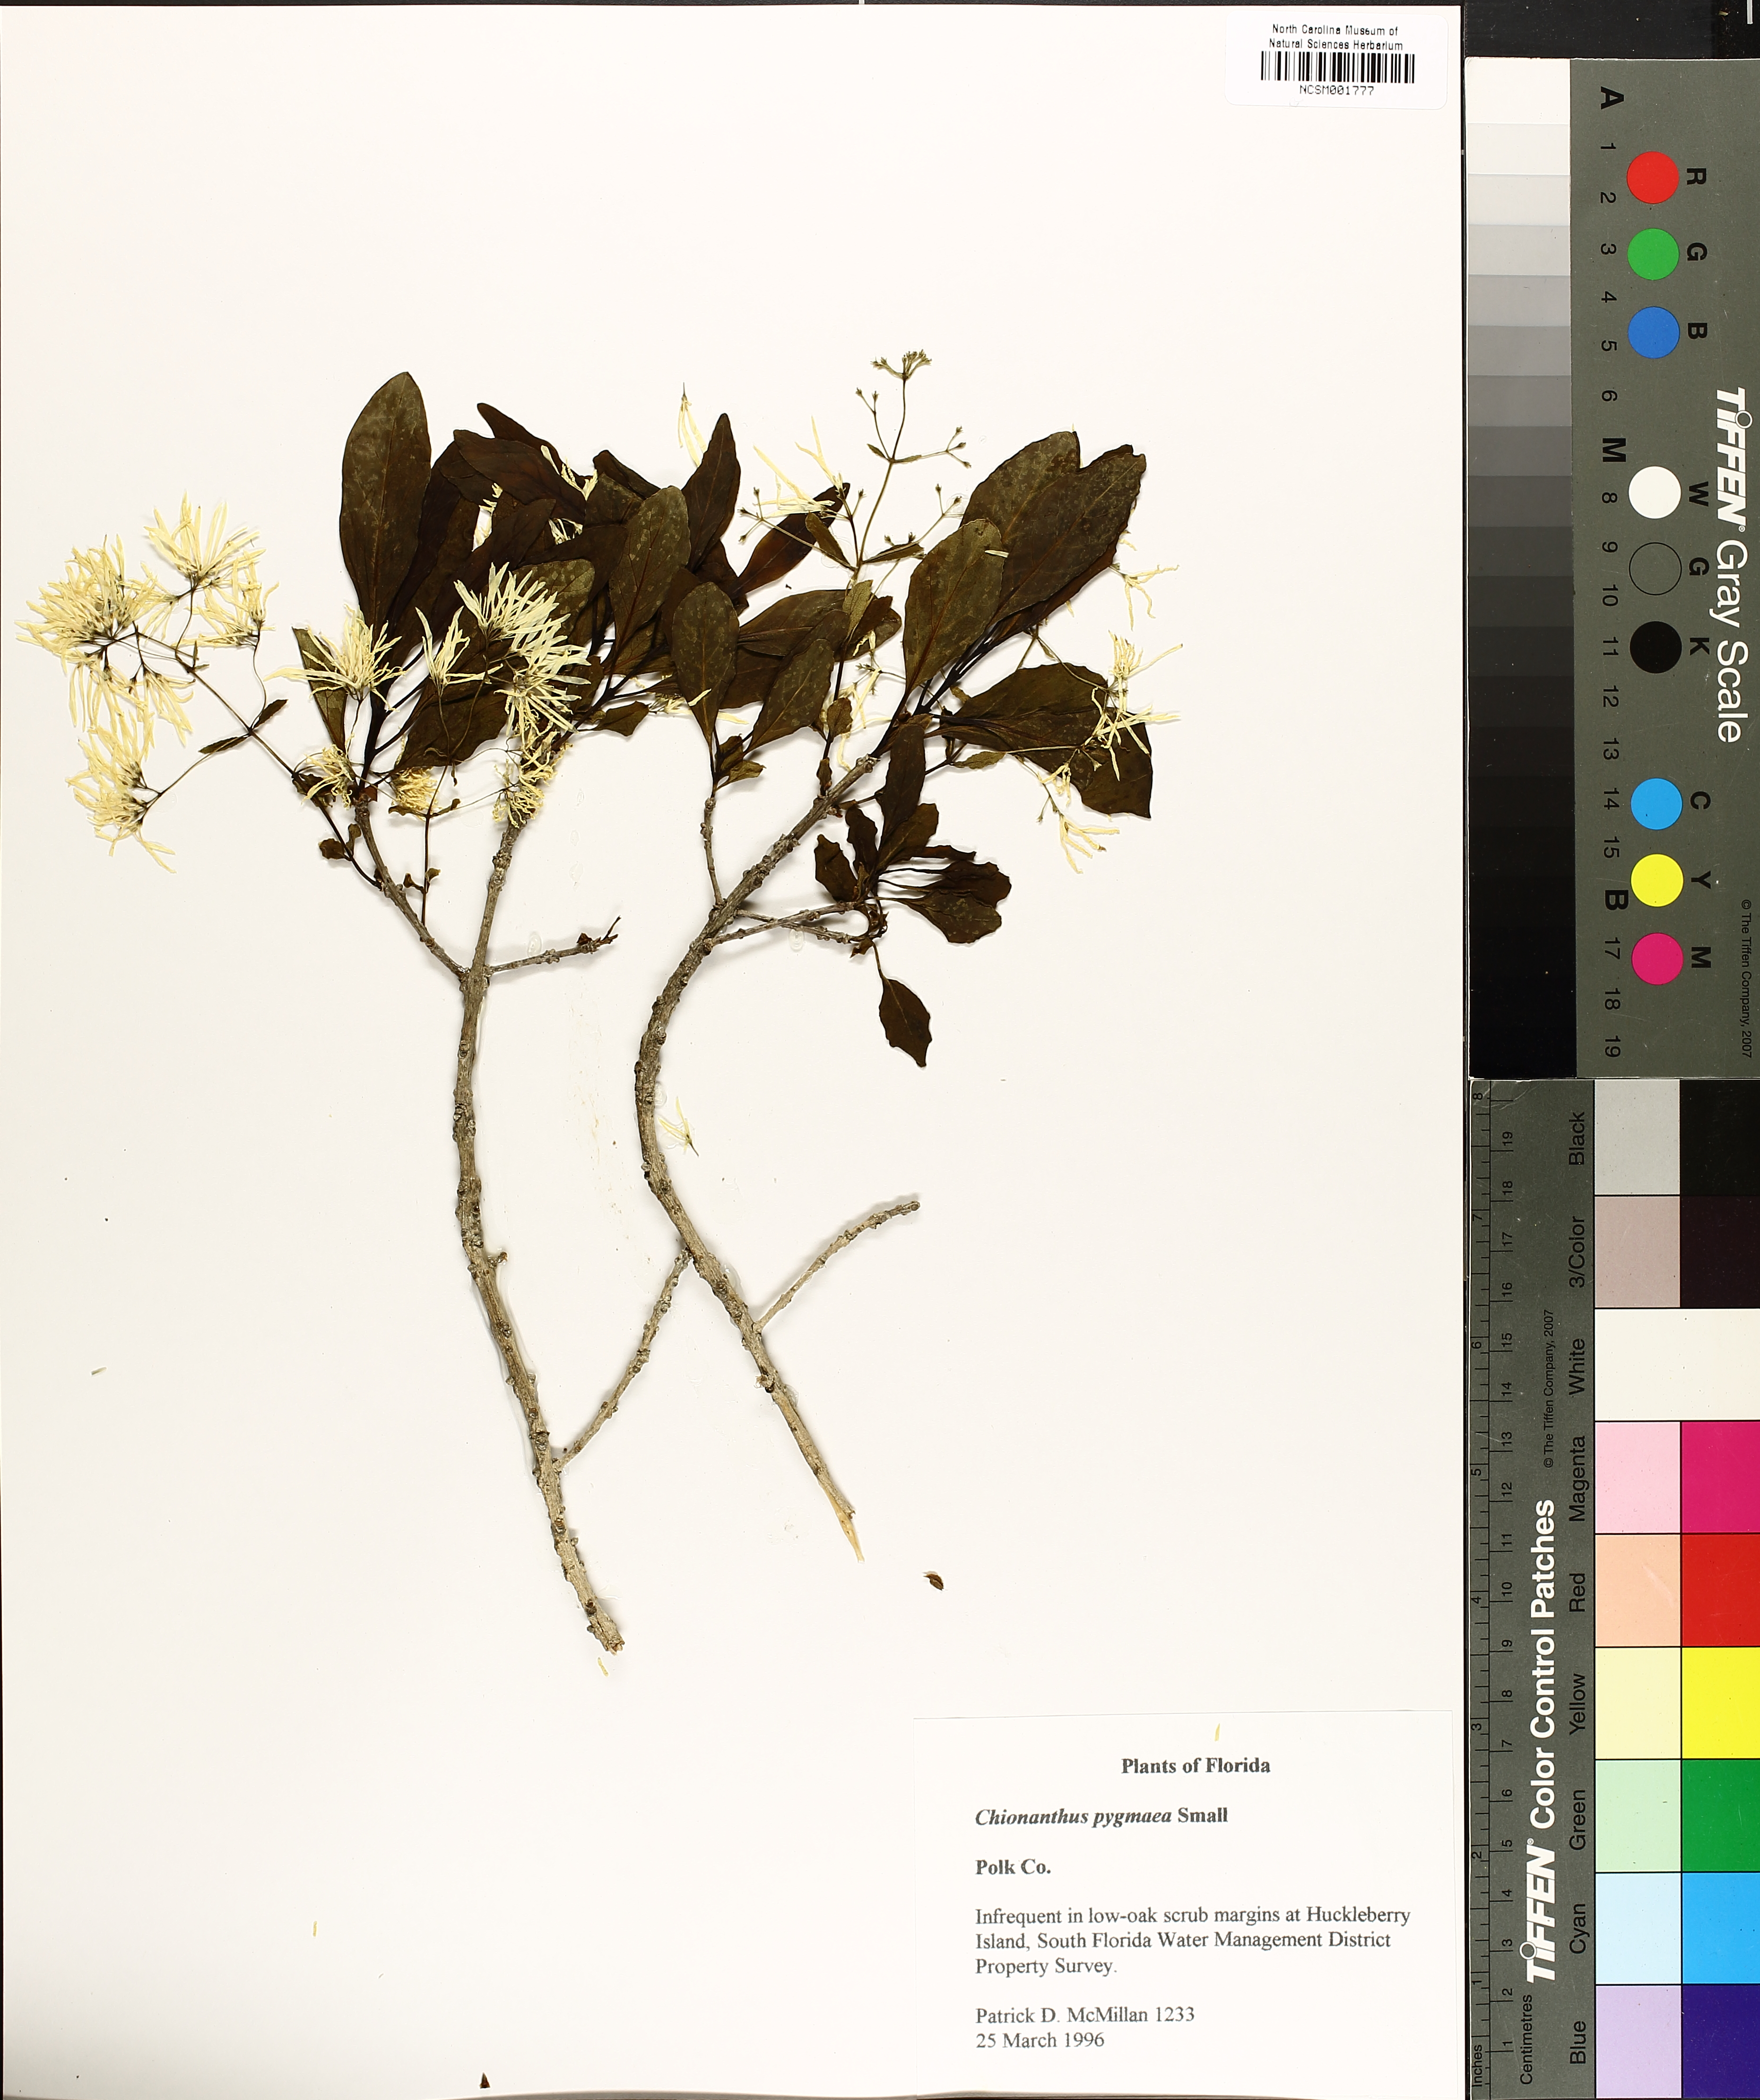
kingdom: Plantae
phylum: Tracheophyta
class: Magnoliopsida
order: Lamiales
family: Oleaceae
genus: Chionanthus
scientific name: Chionanthus pygmaeus
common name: Pygmy fringetree
